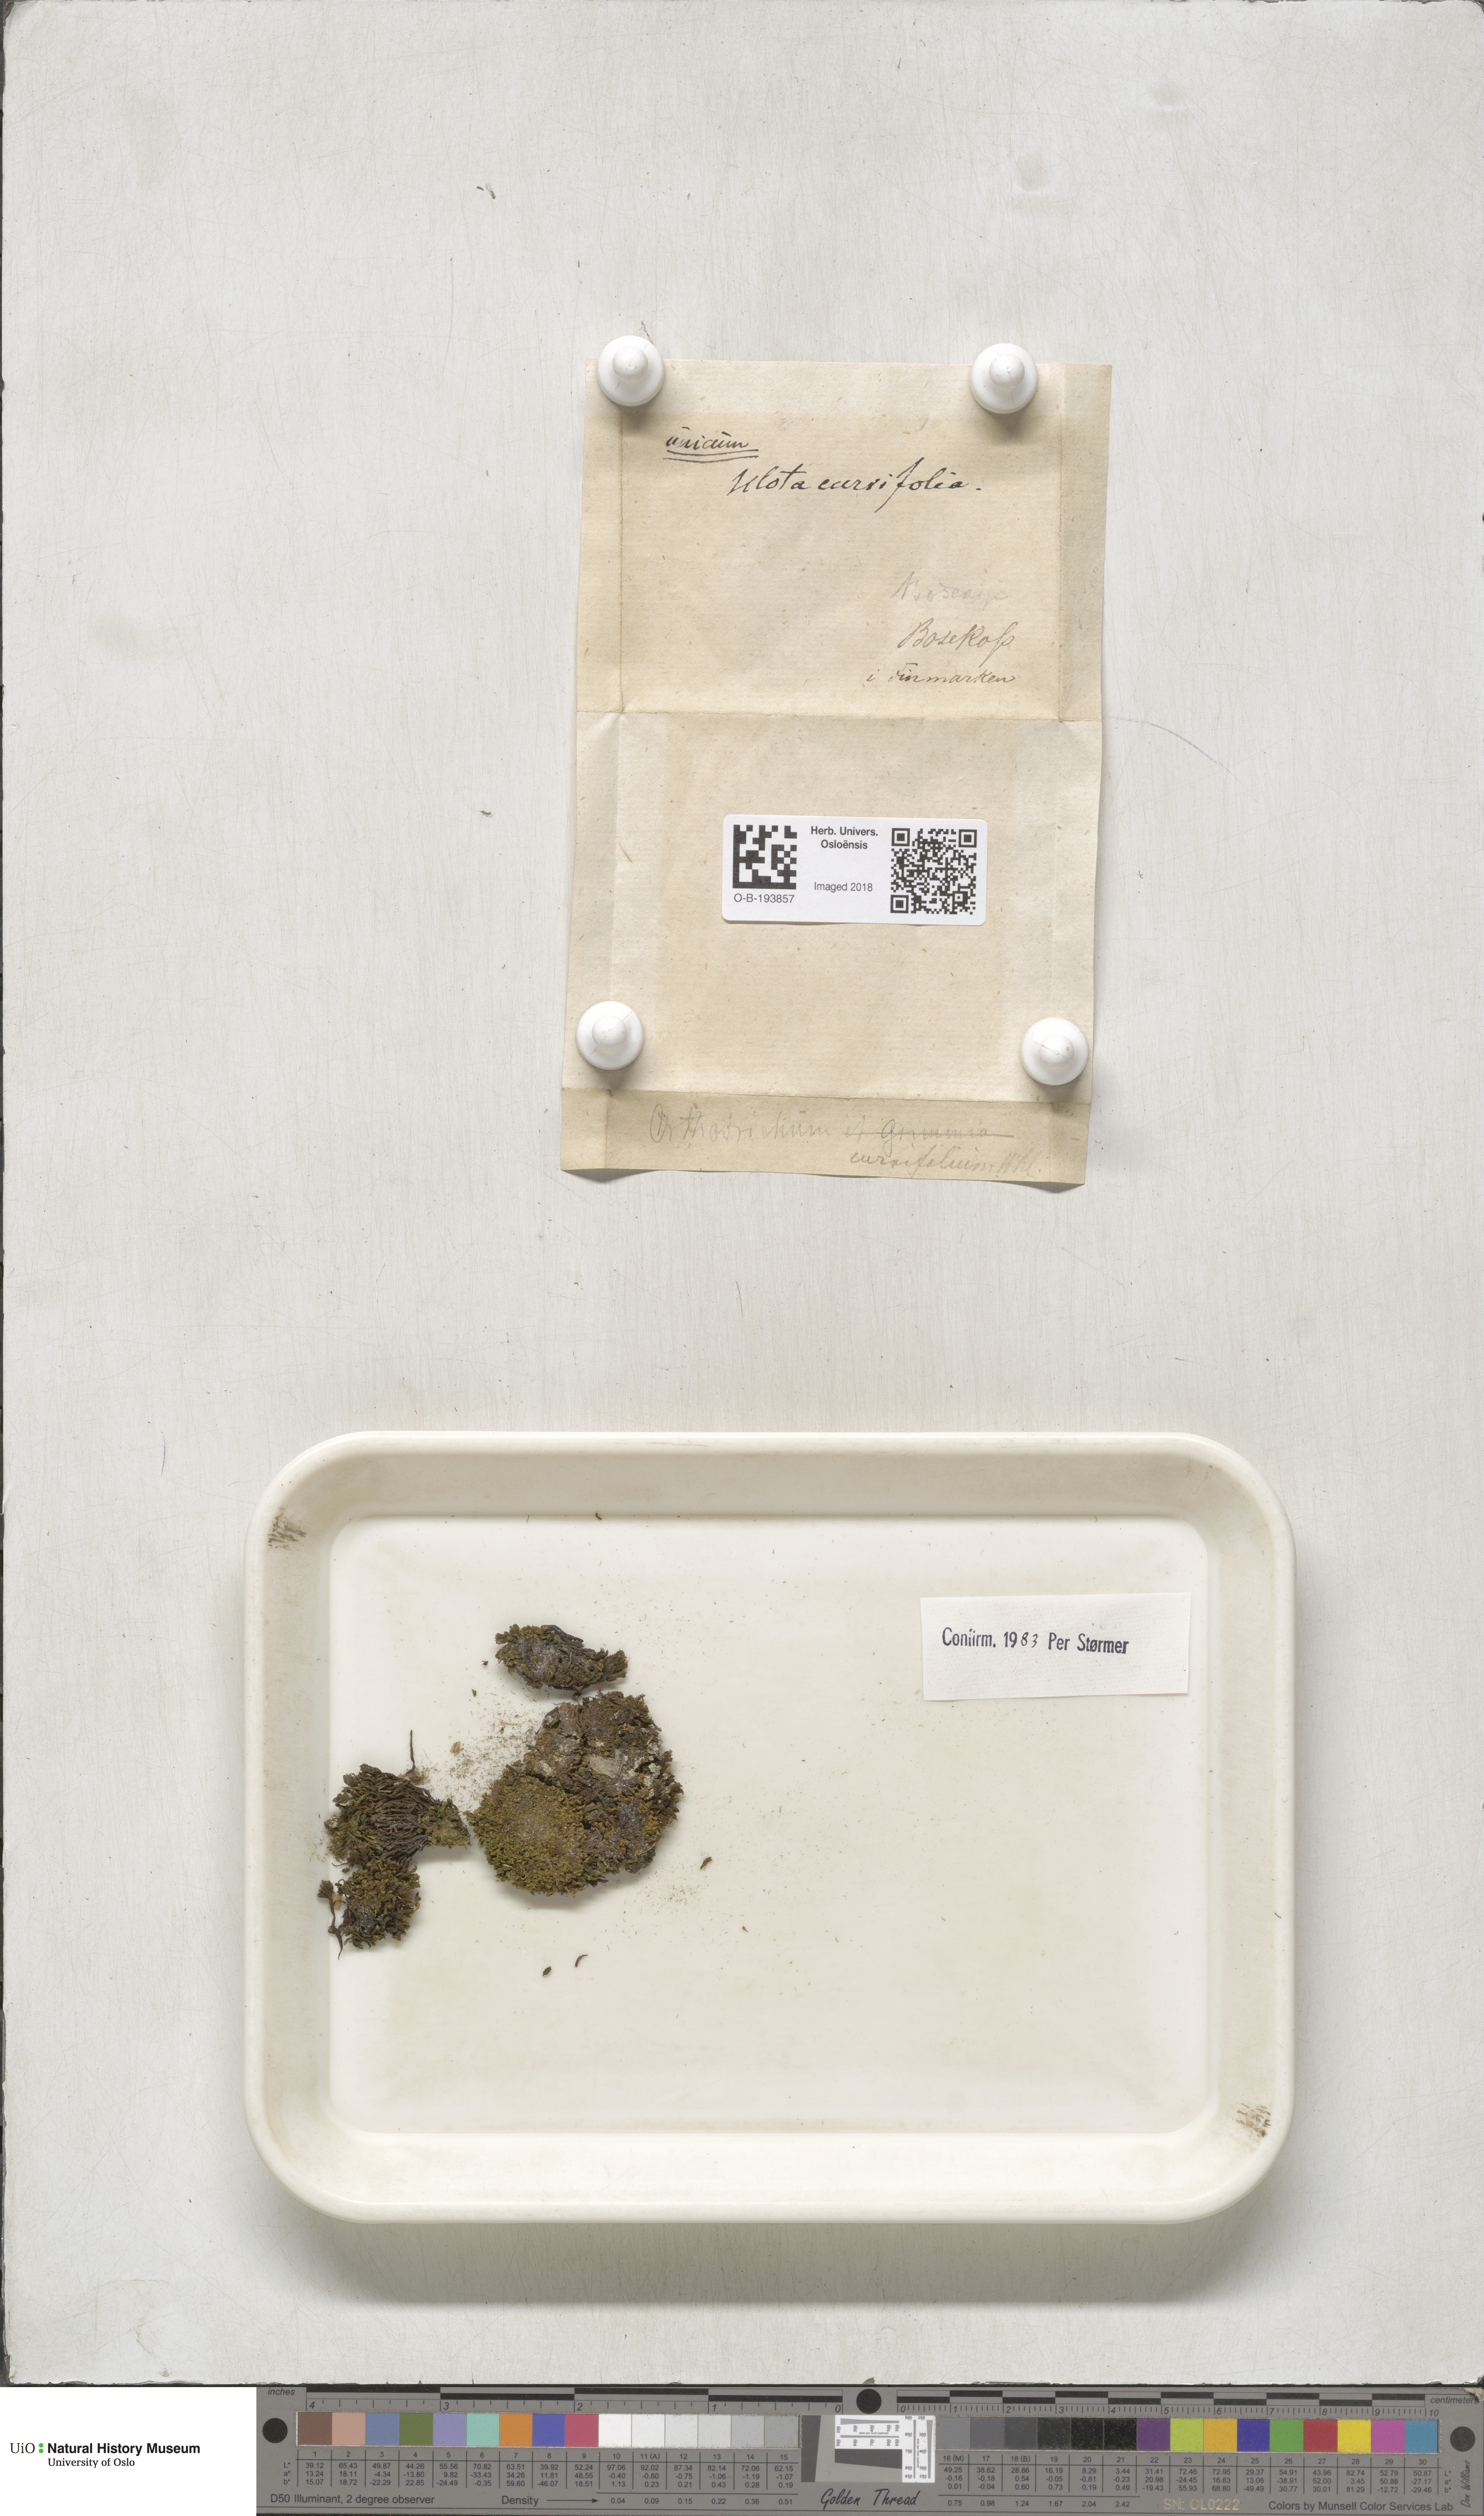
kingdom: Plantae
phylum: Bryophyta
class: Bryopsida
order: Orthotrichales
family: Orthotrichaceae
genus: Ulota
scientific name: Ulota curvifolia
